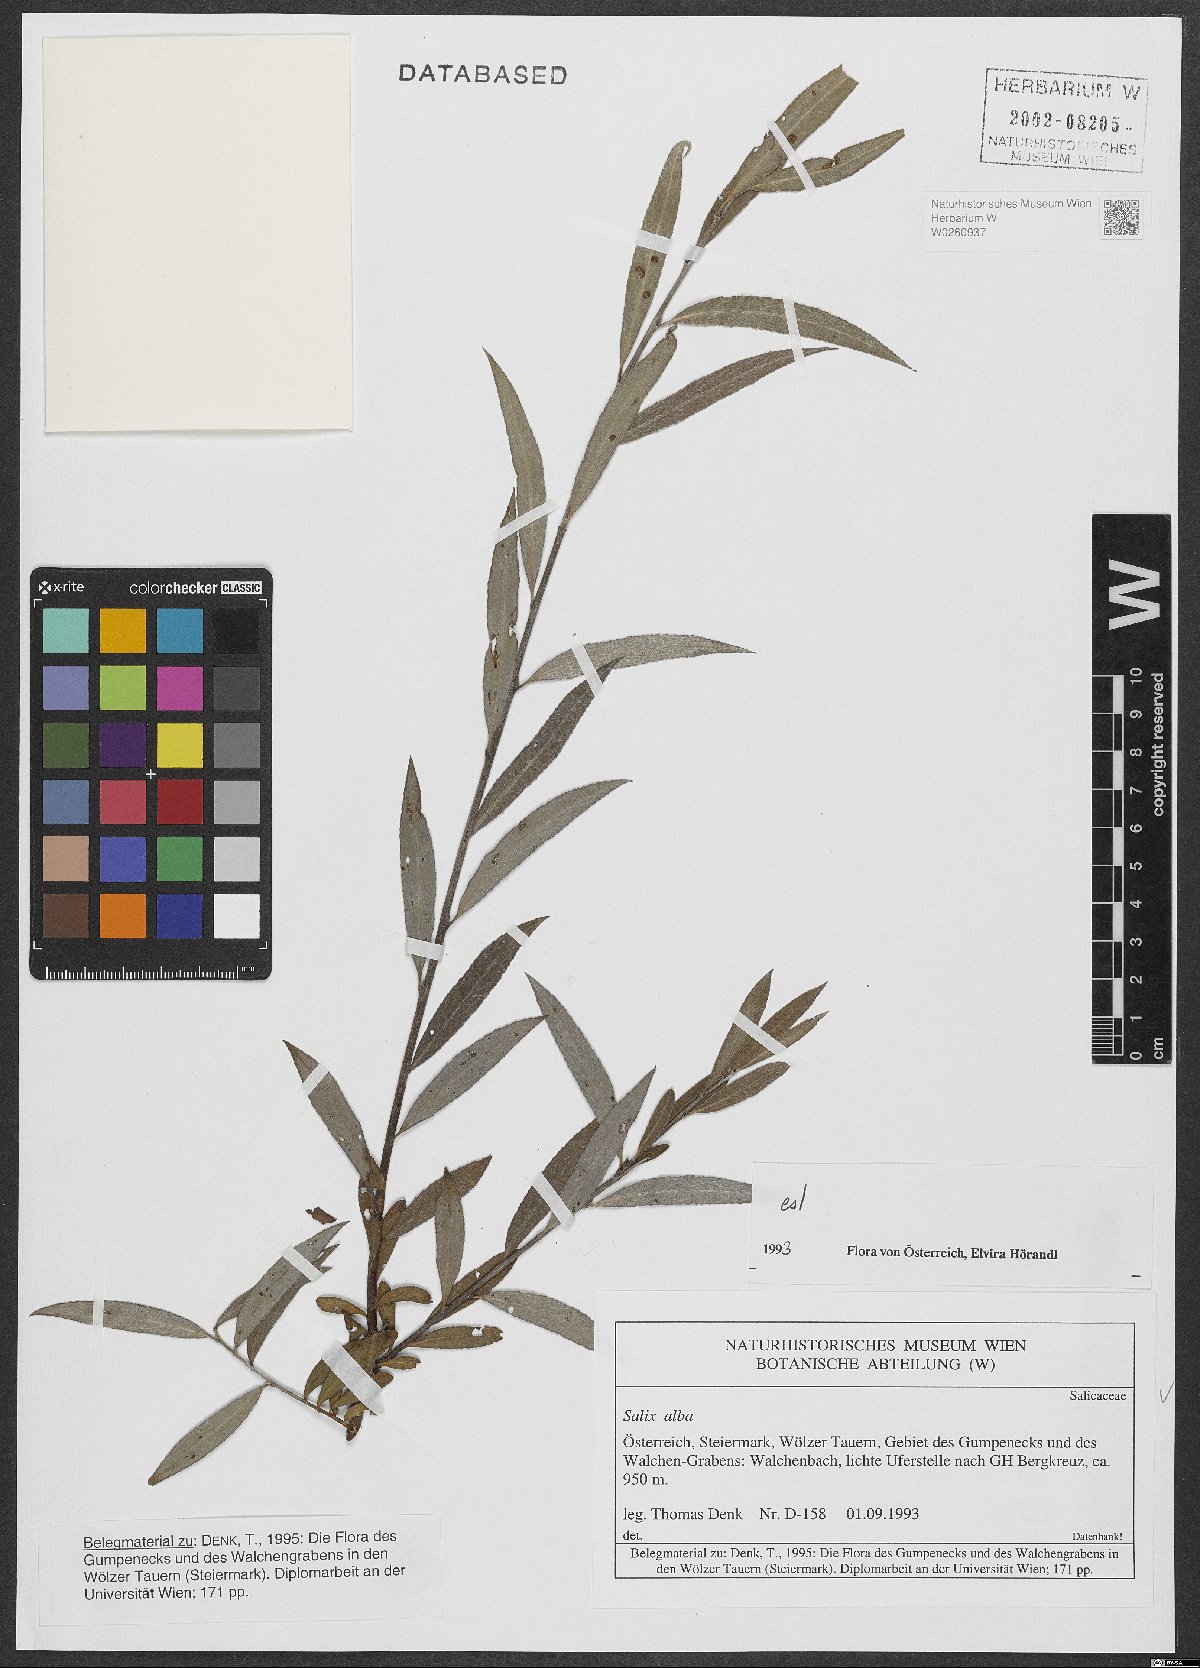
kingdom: Plantae
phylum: Tracheophyta
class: Magnoliopsida
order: Malpighiales
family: Salicaceae
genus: Salix
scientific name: Salix alba
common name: White willow
